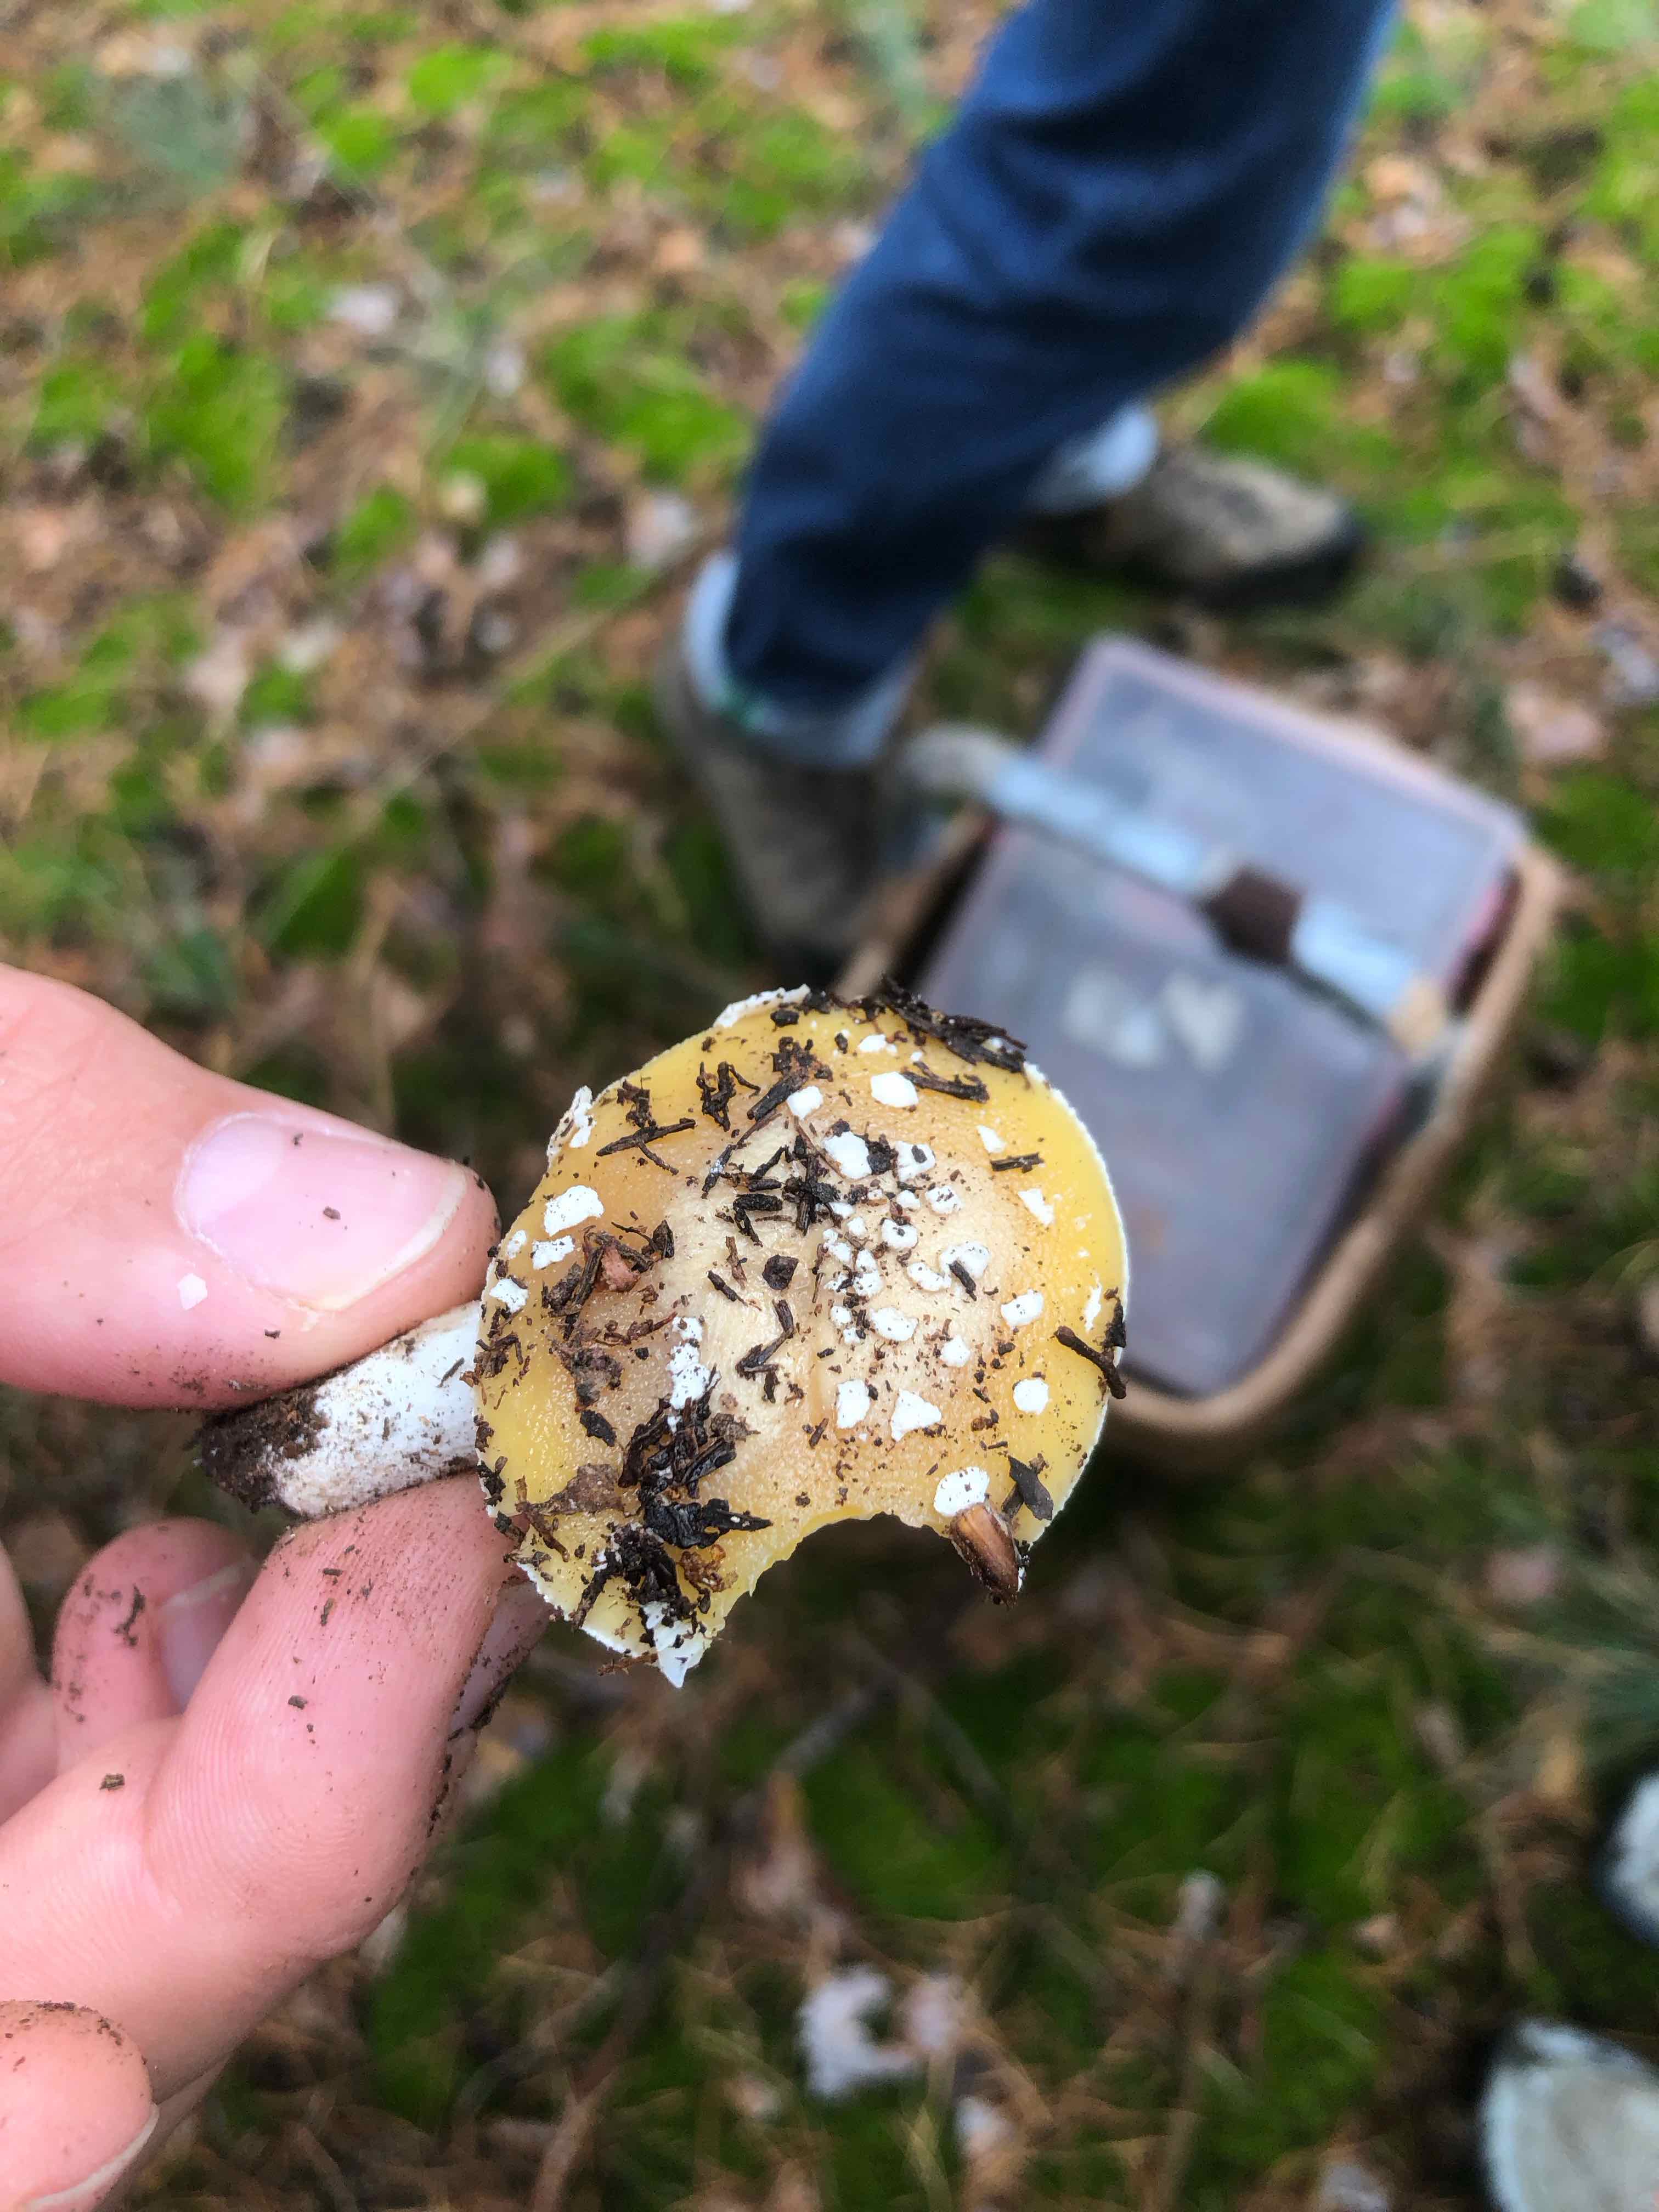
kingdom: Fungi
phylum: Basidiomycota
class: Agaricomycetes
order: Agaricales
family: Amanitaceae
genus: Amanita
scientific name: Amanita gemmata
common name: okkergul fluesvamp
